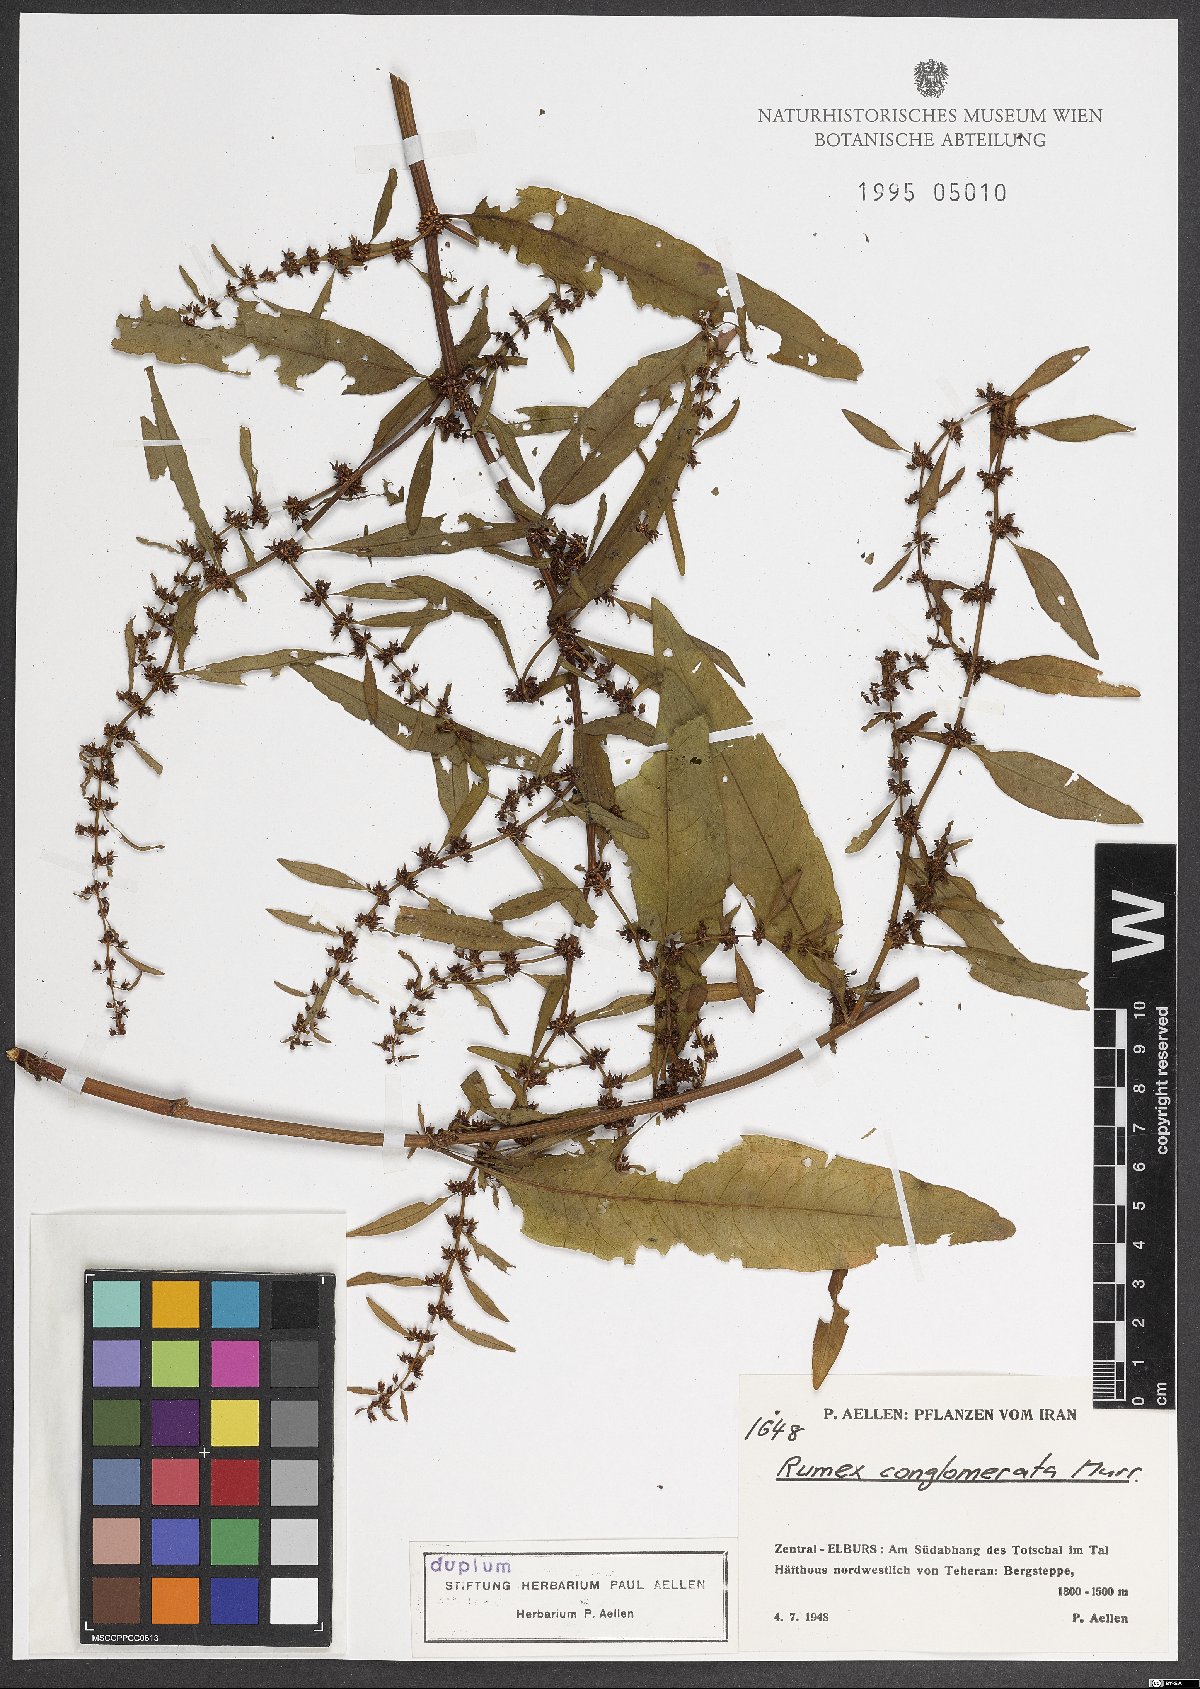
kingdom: Plantae
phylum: Tracheophyta
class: Magnoliopsida
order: Caryophyllales
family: Polygonaceae
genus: Rumex
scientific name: Rumex conglomeratus
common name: Clustered dock
